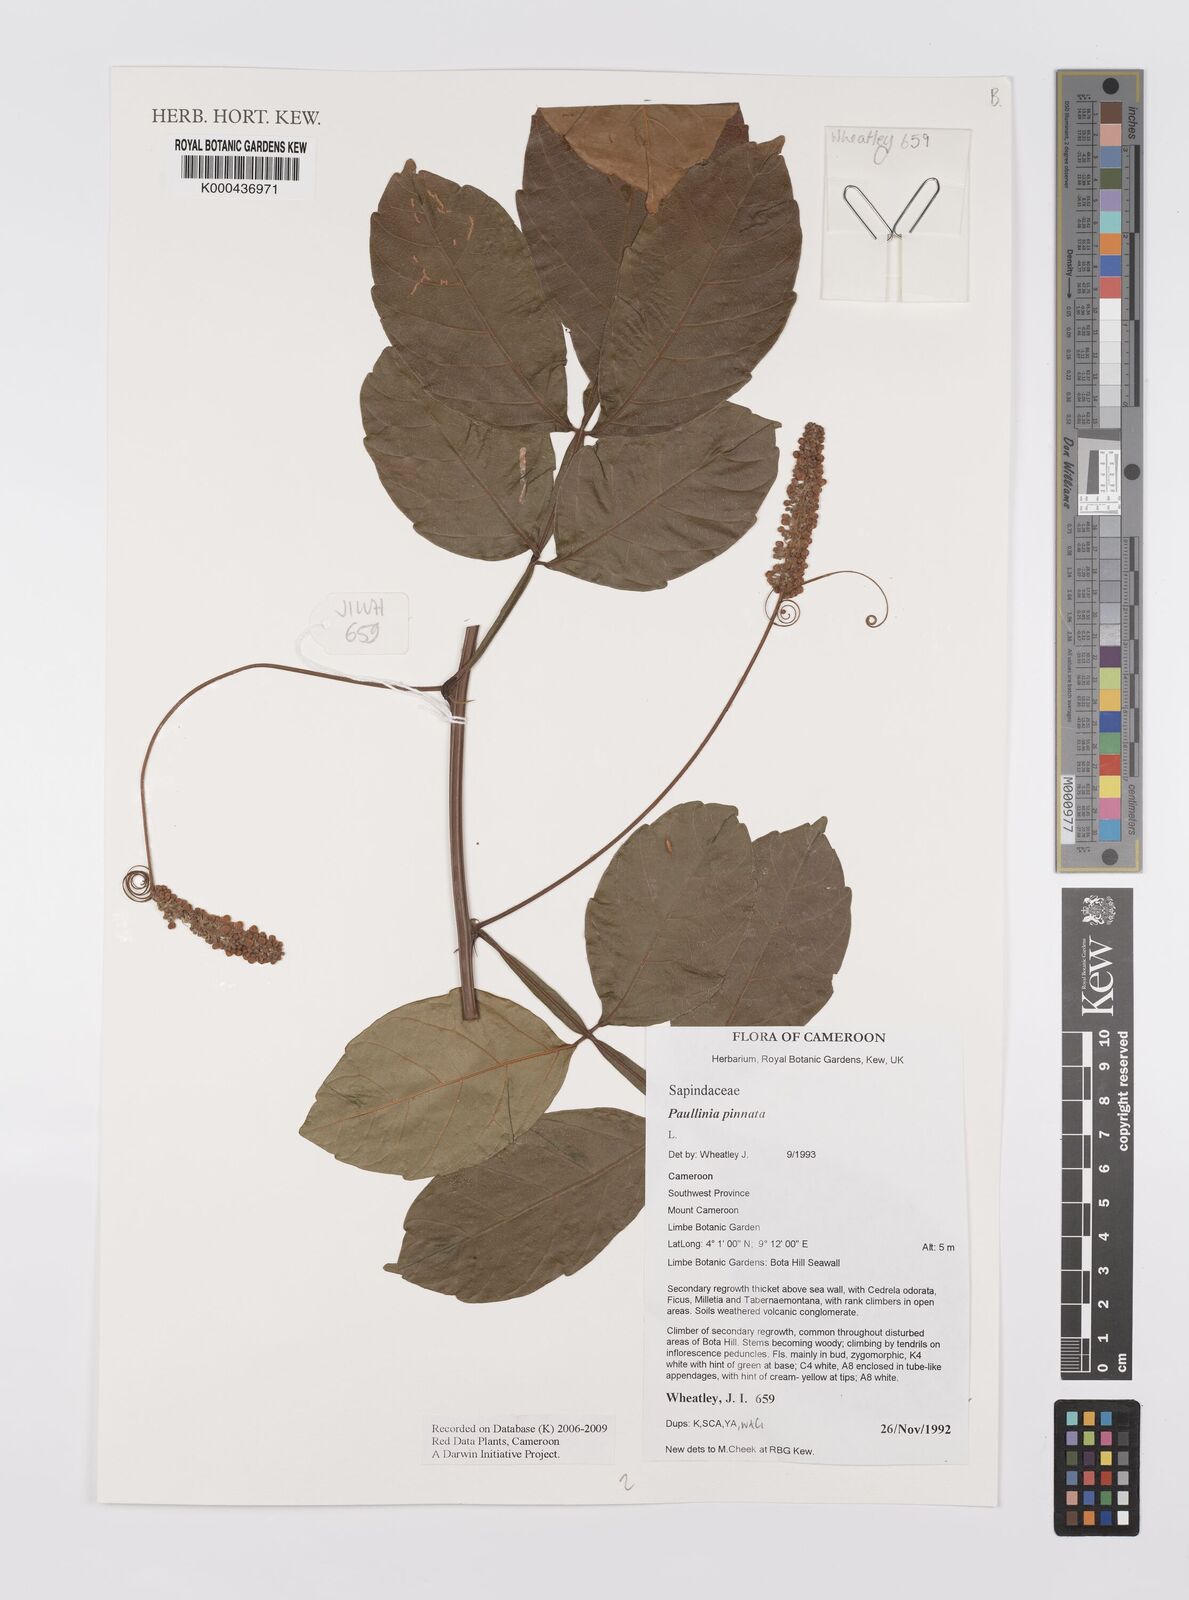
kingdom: Plantae
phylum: Tracheophyta
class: Magnoliopsida
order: Sapindales
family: Sapindaceae
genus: Paullinia
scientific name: Paullinia pinnata
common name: Barbasco
